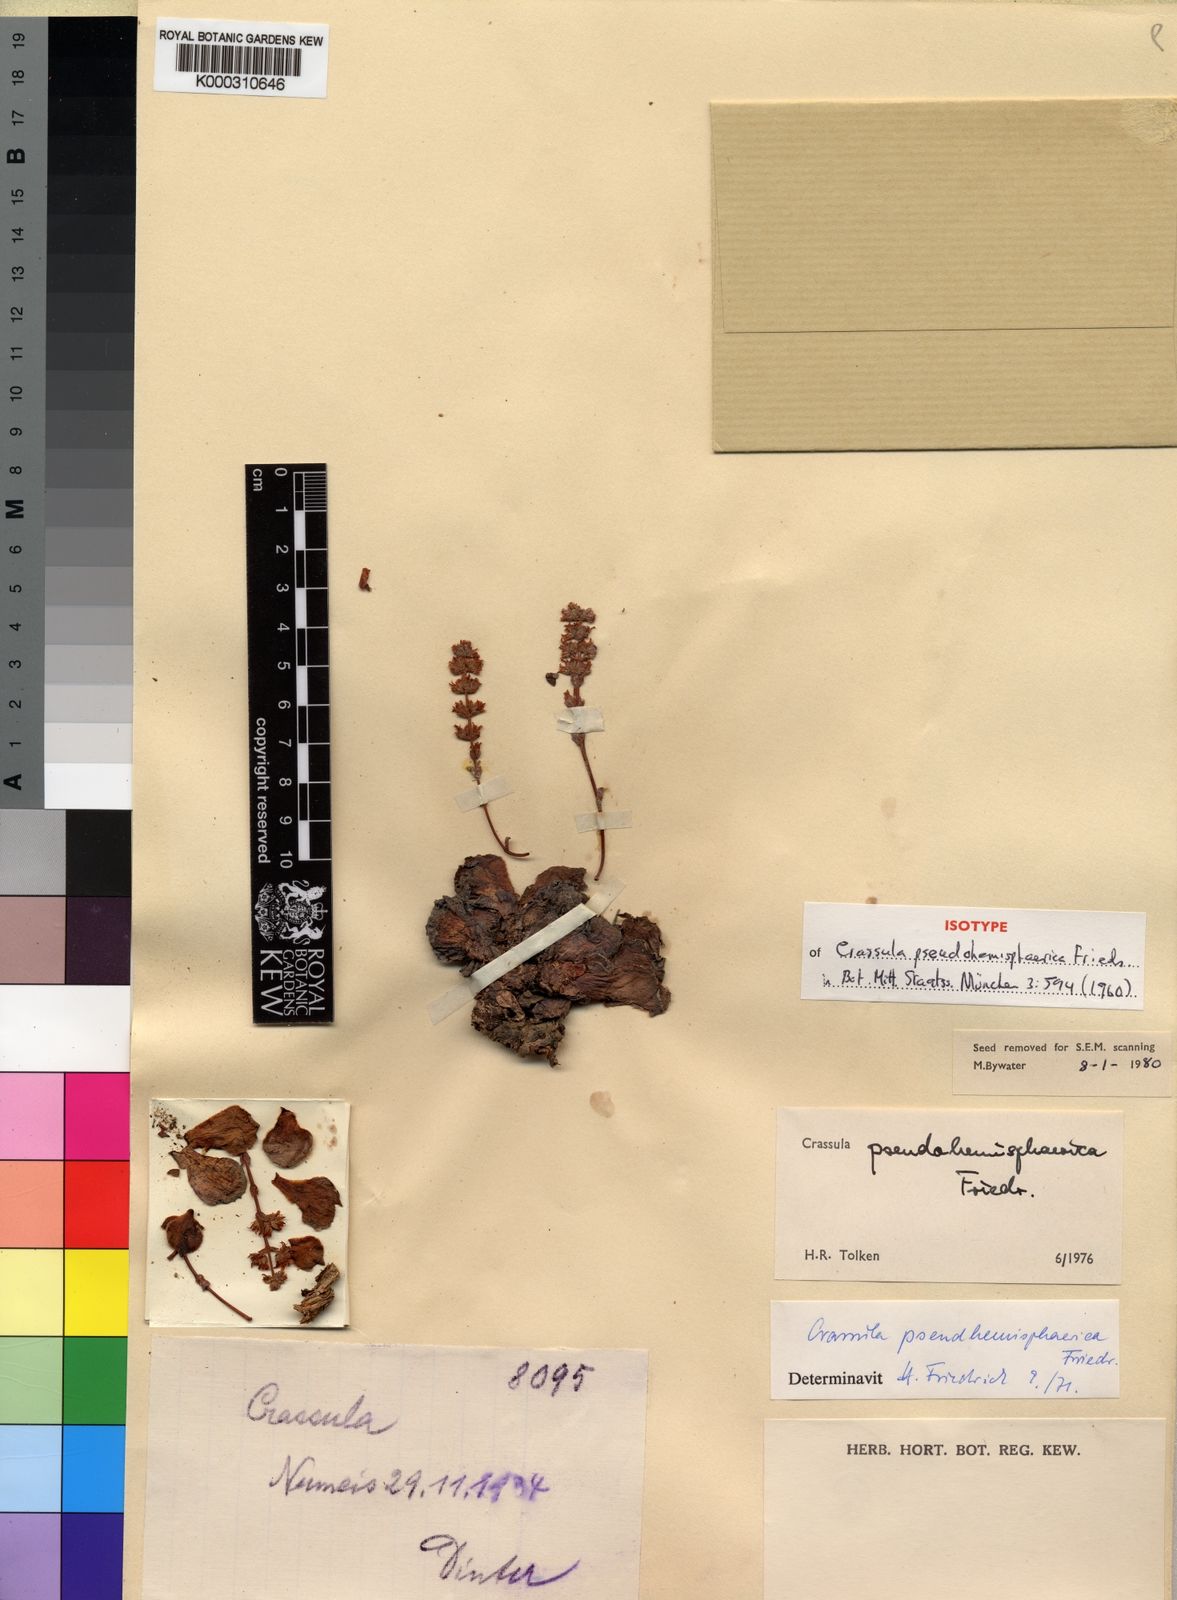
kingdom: Plantae
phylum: Tracheophyta
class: Magnoliopsida
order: Saxifragales
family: Crassulaceae
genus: Crassula
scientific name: Crassula
